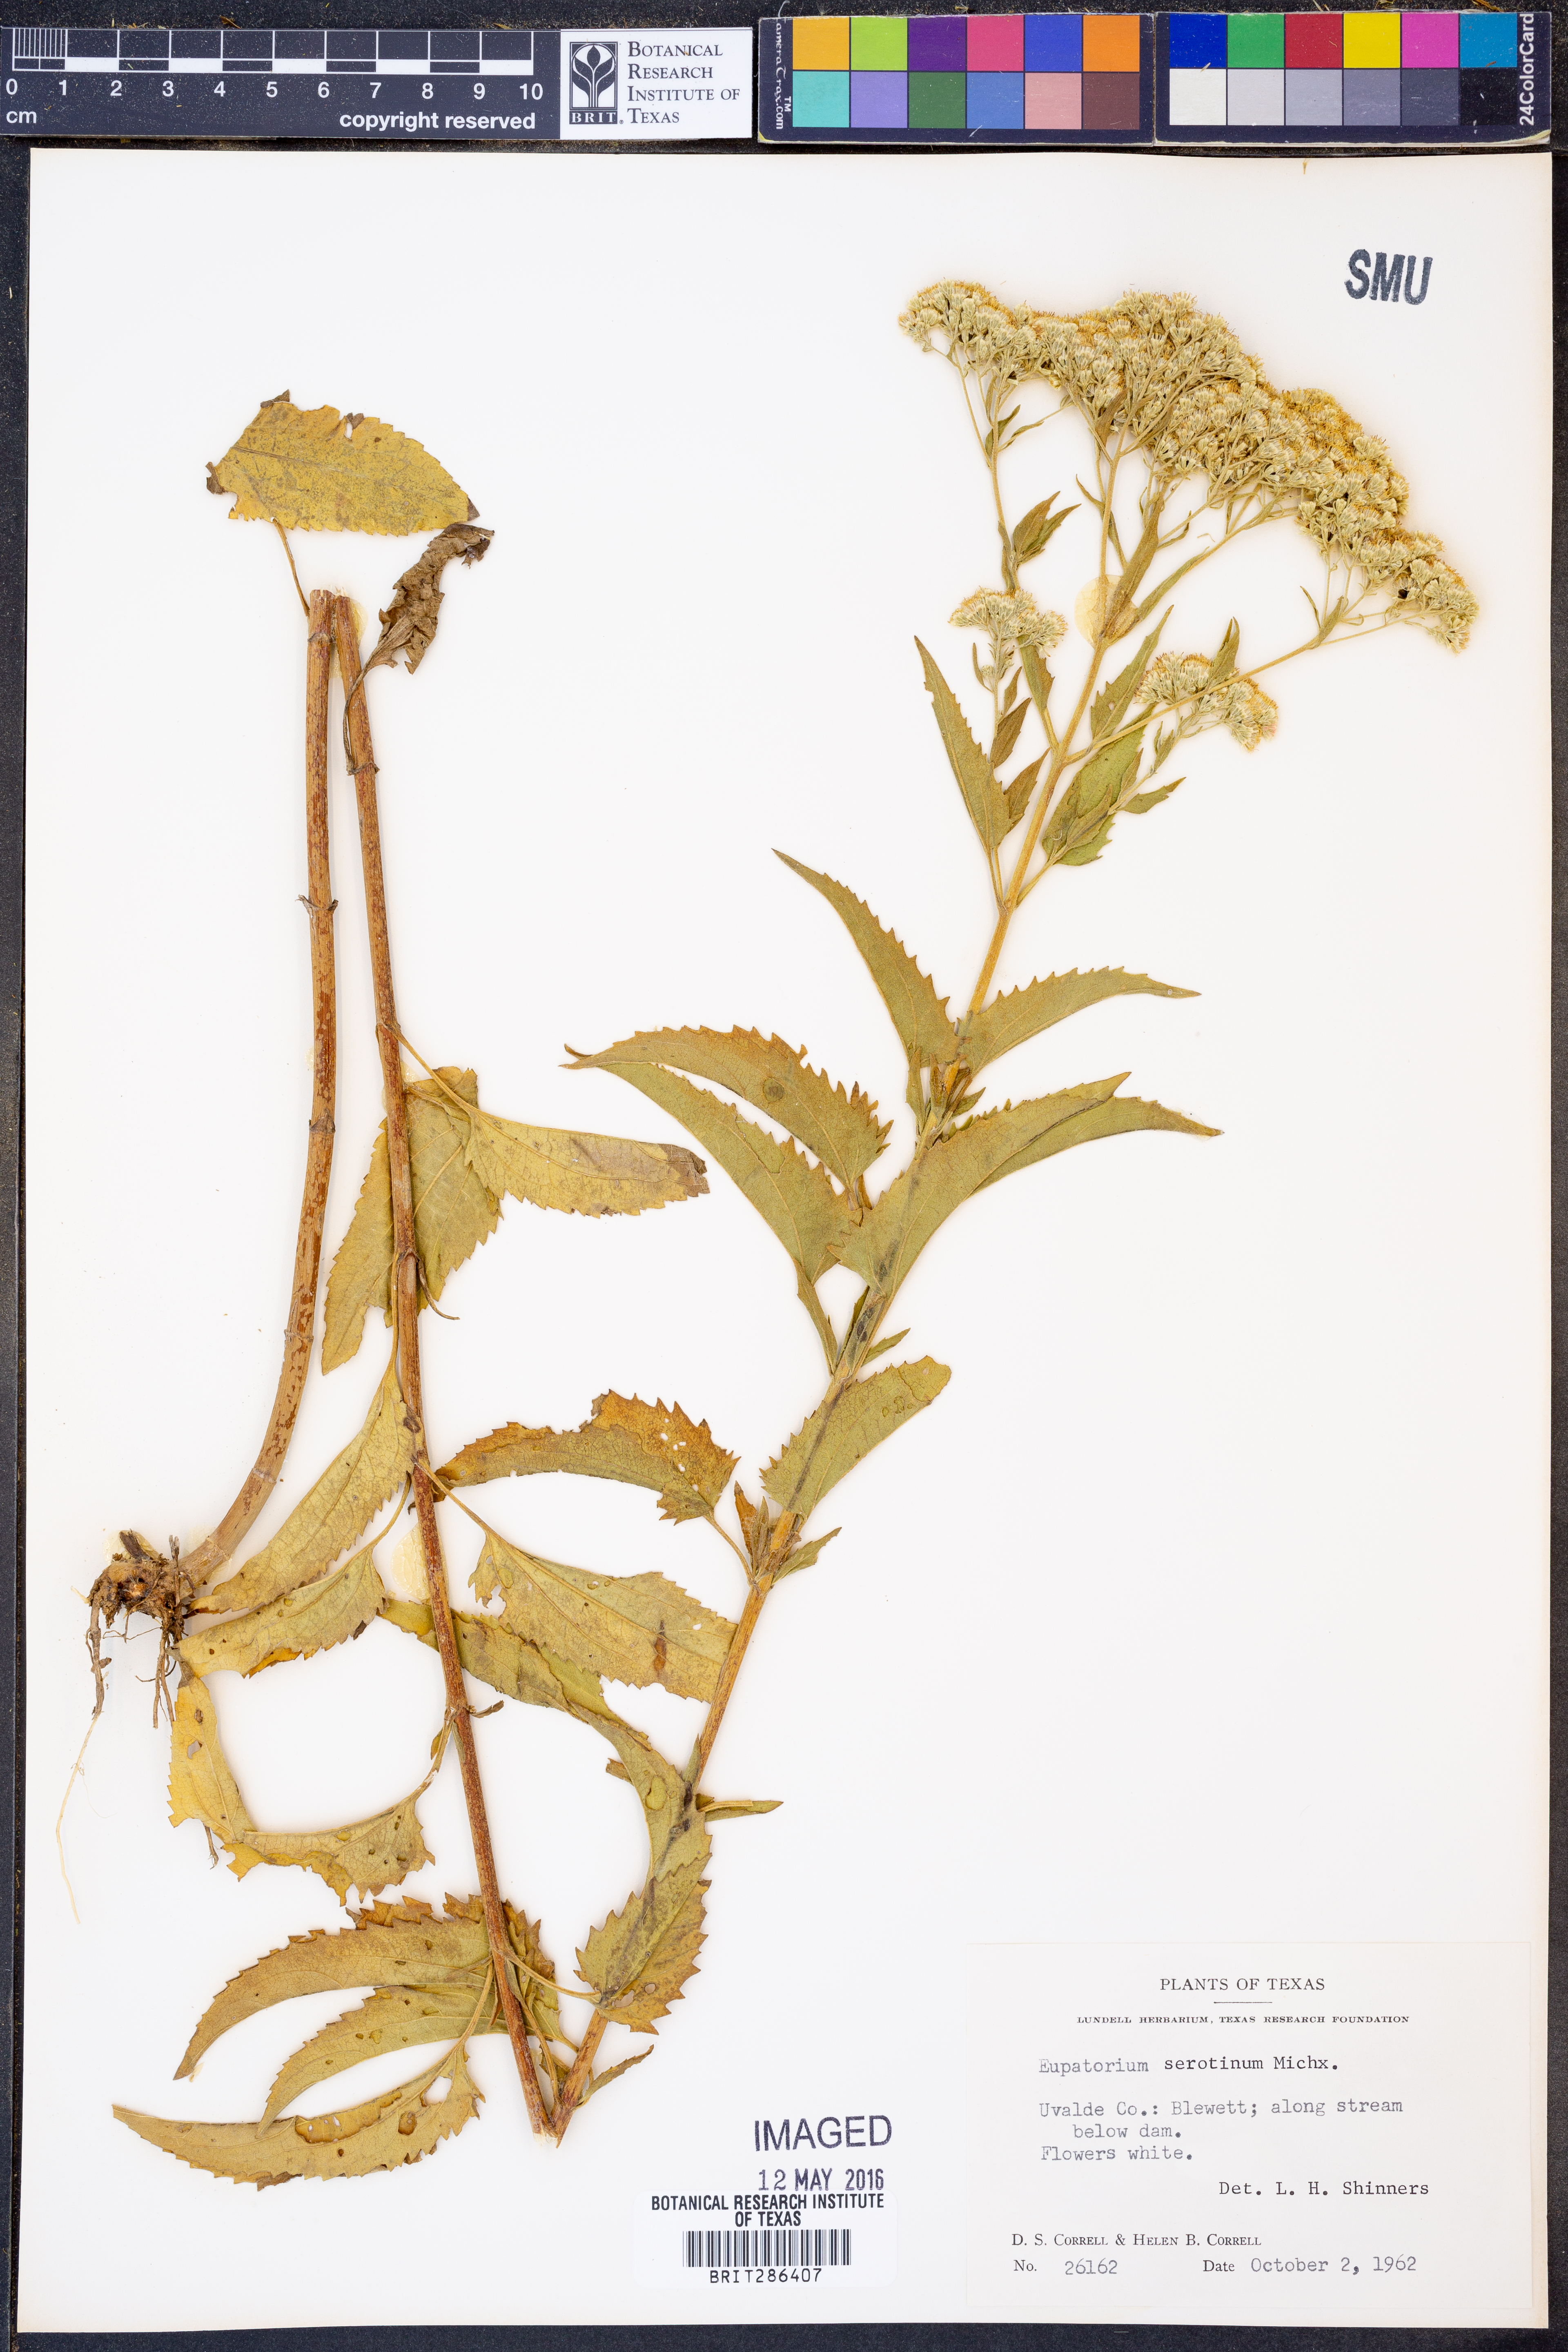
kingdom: Plantae
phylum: Tracheophyta
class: Magnoliopsida
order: Asterales
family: Asteraceae
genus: Eupatorium
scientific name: Eupatorium serotinum
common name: Late boneset
